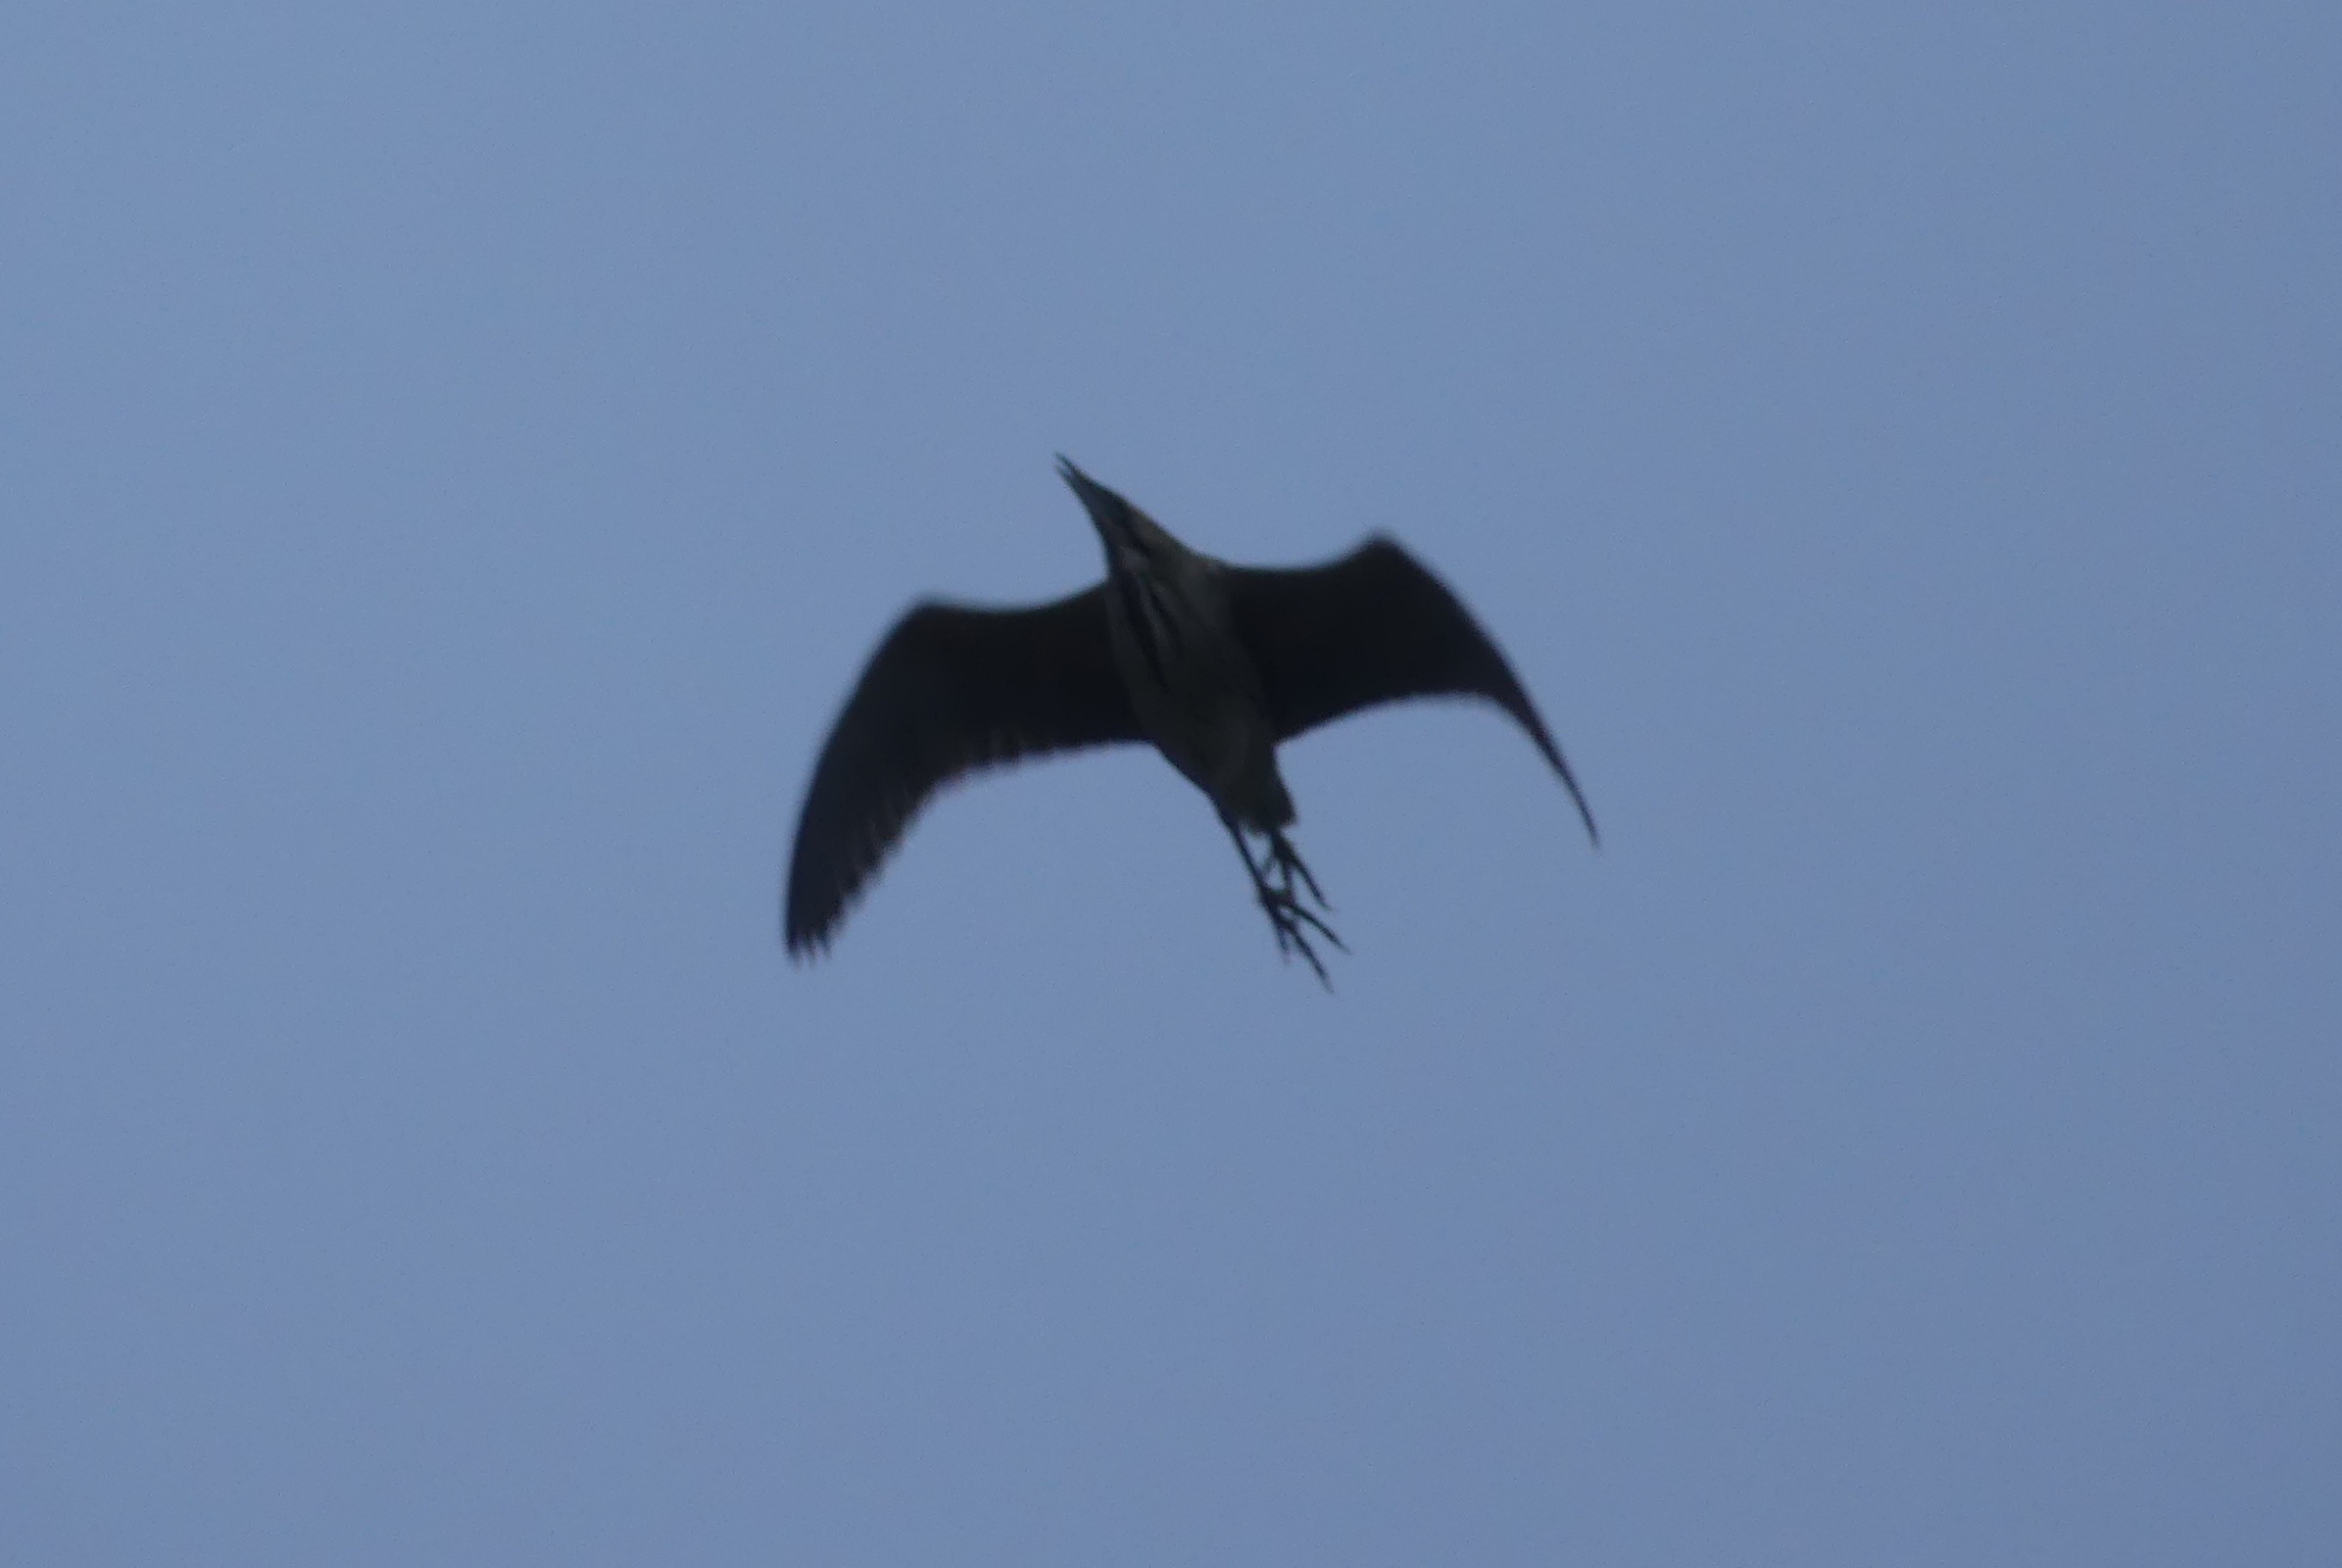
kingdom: Animalia
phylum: Chordata
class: Aves
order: Pelecaniformes
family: Ardeidae
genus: Botaurus
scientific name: Botaurus stellaris
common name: Rørdrum
